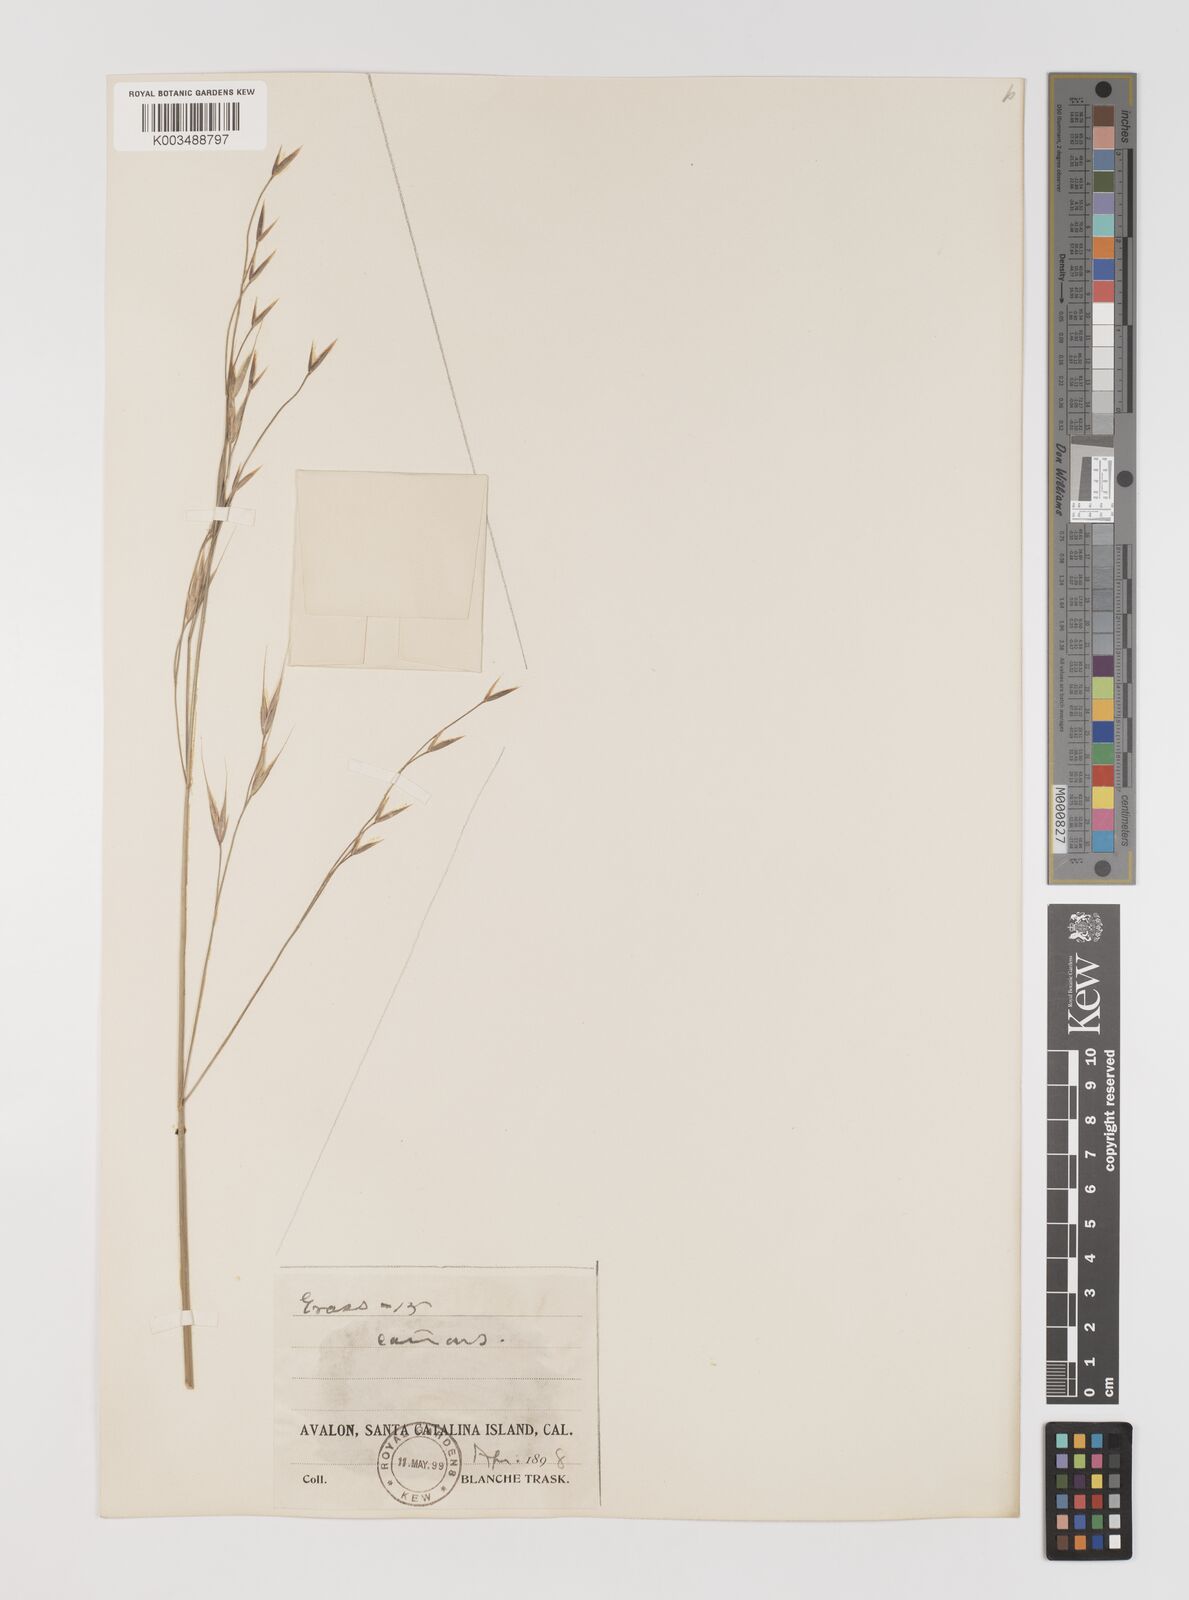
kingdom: Plantae
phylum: Tracheophyta
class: Liliopsida
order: Poales
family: Poaceae
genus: Bromus
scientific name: Bromus
